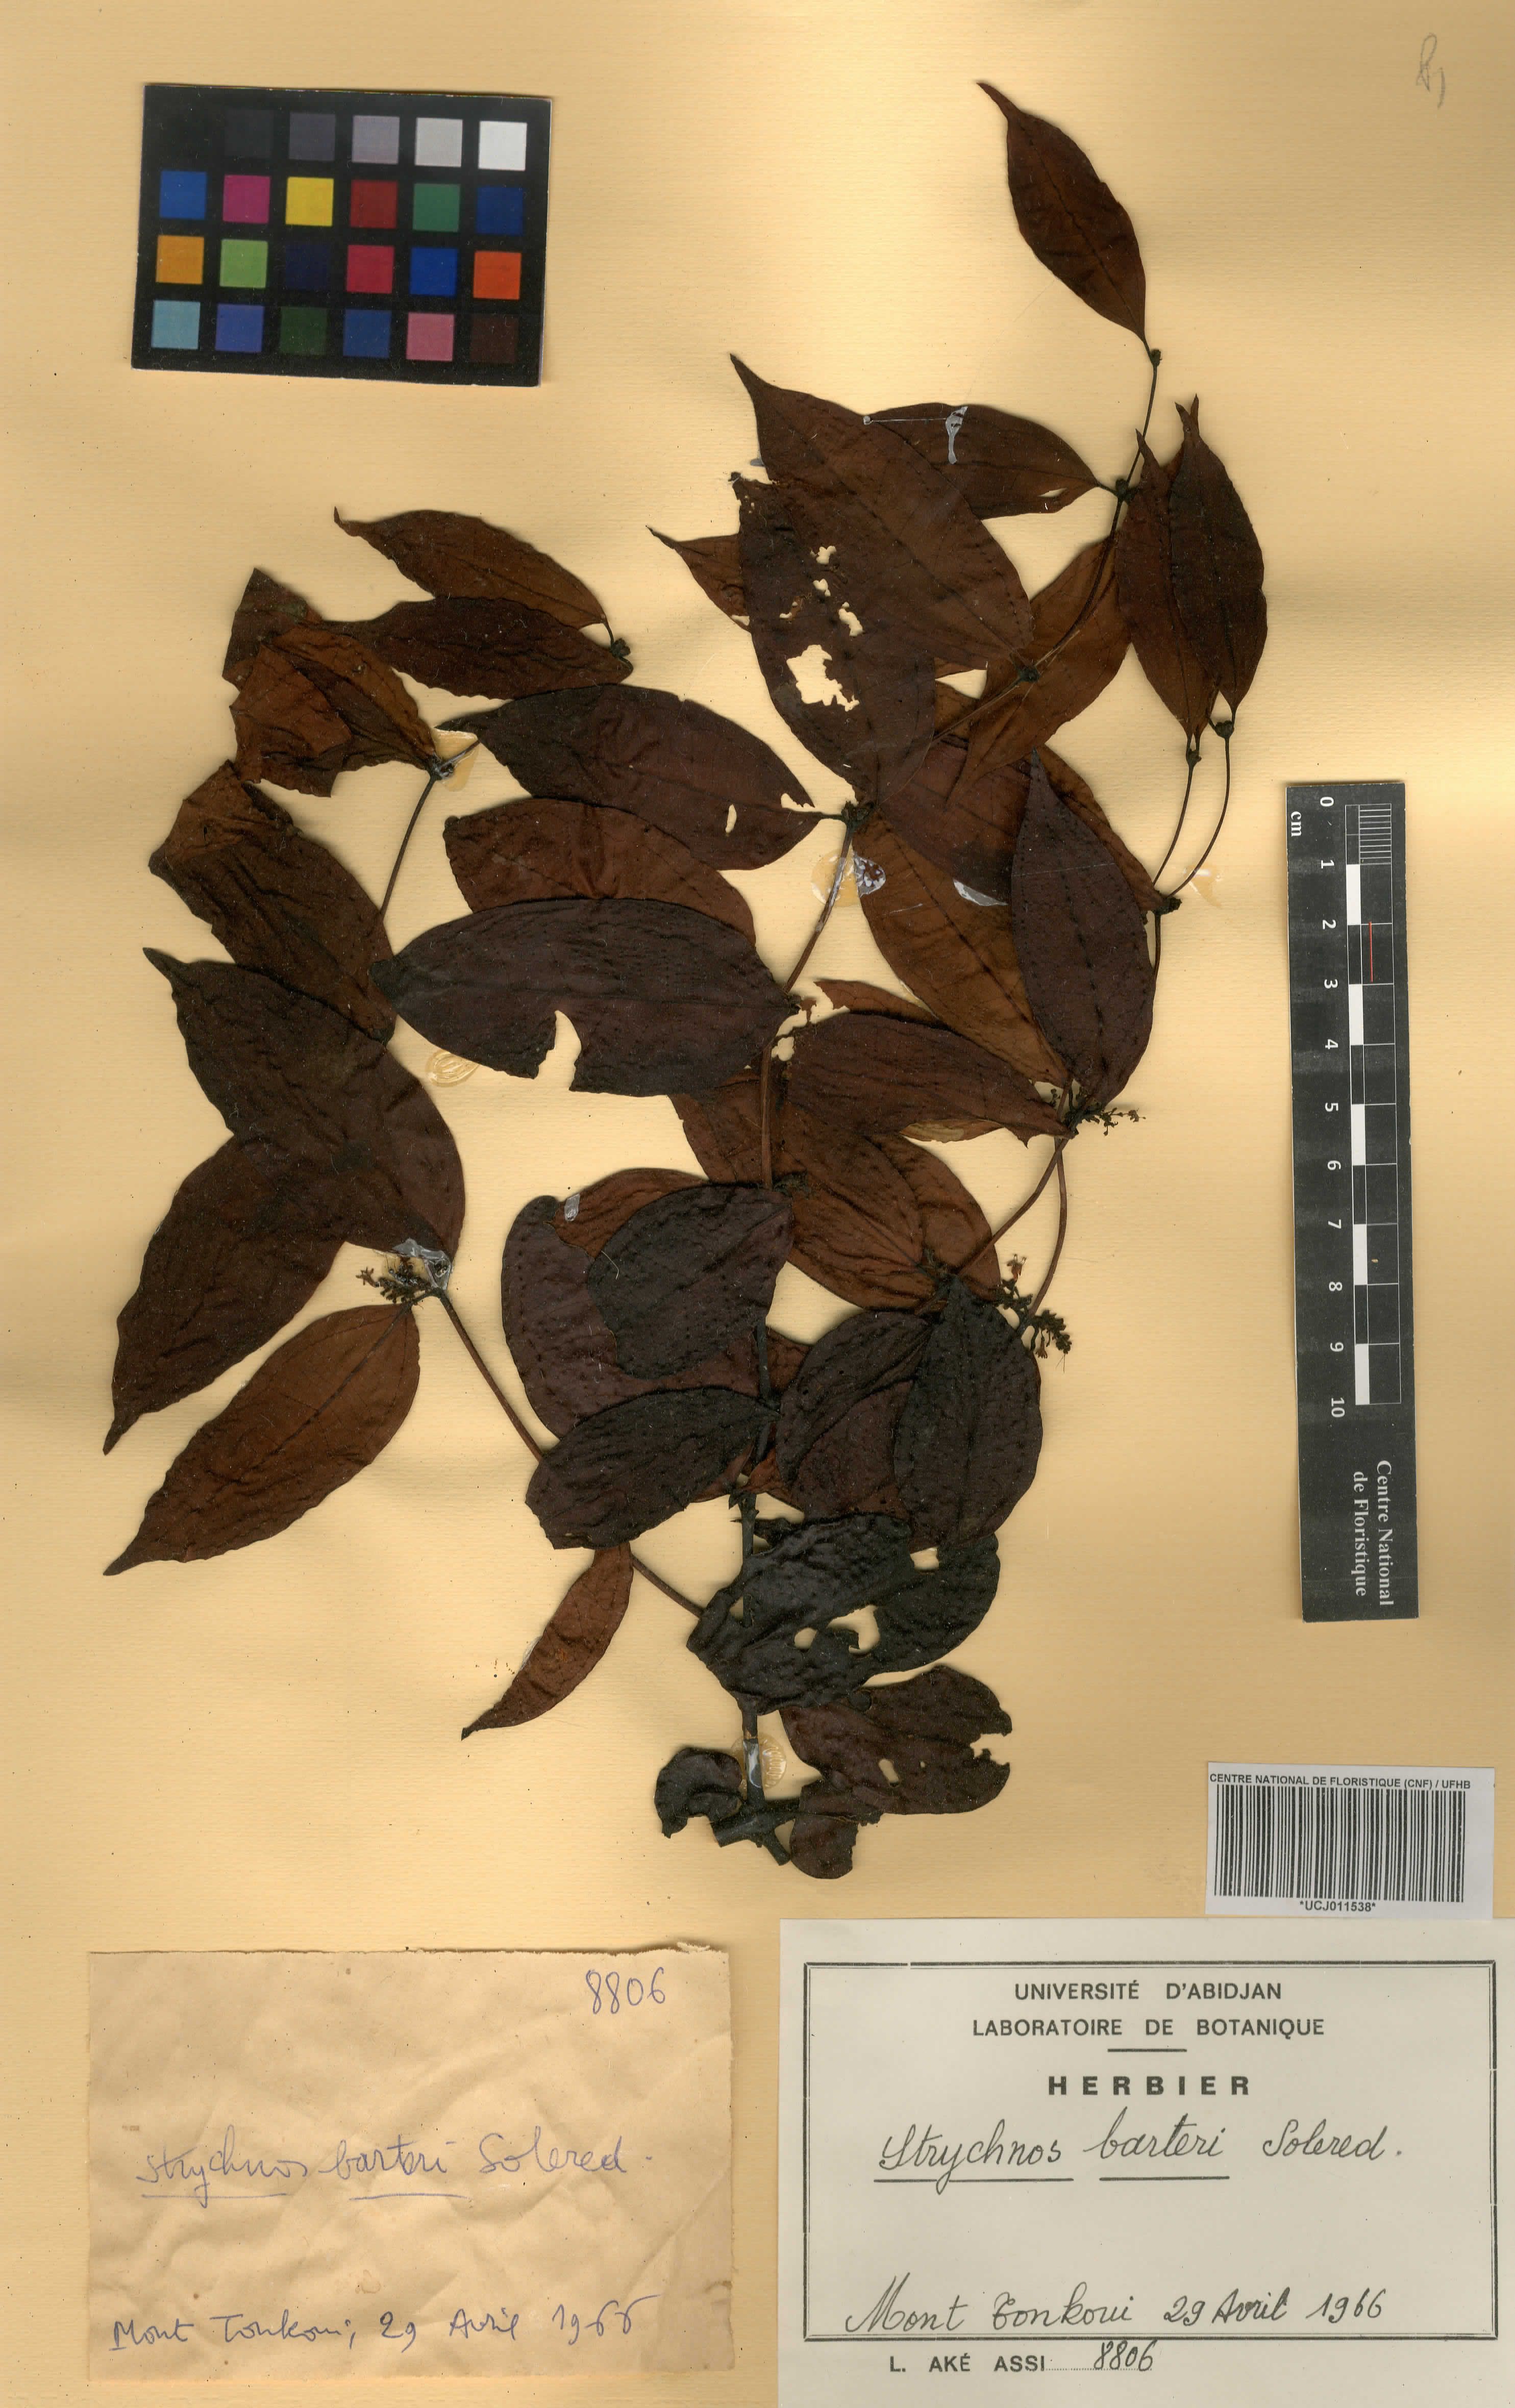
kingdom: Plantae
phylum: Tracheophyta
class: Magnoliopsida
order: Gentianales
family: Loganiaceae
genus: Strychnos
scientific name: Strychnos barteri
